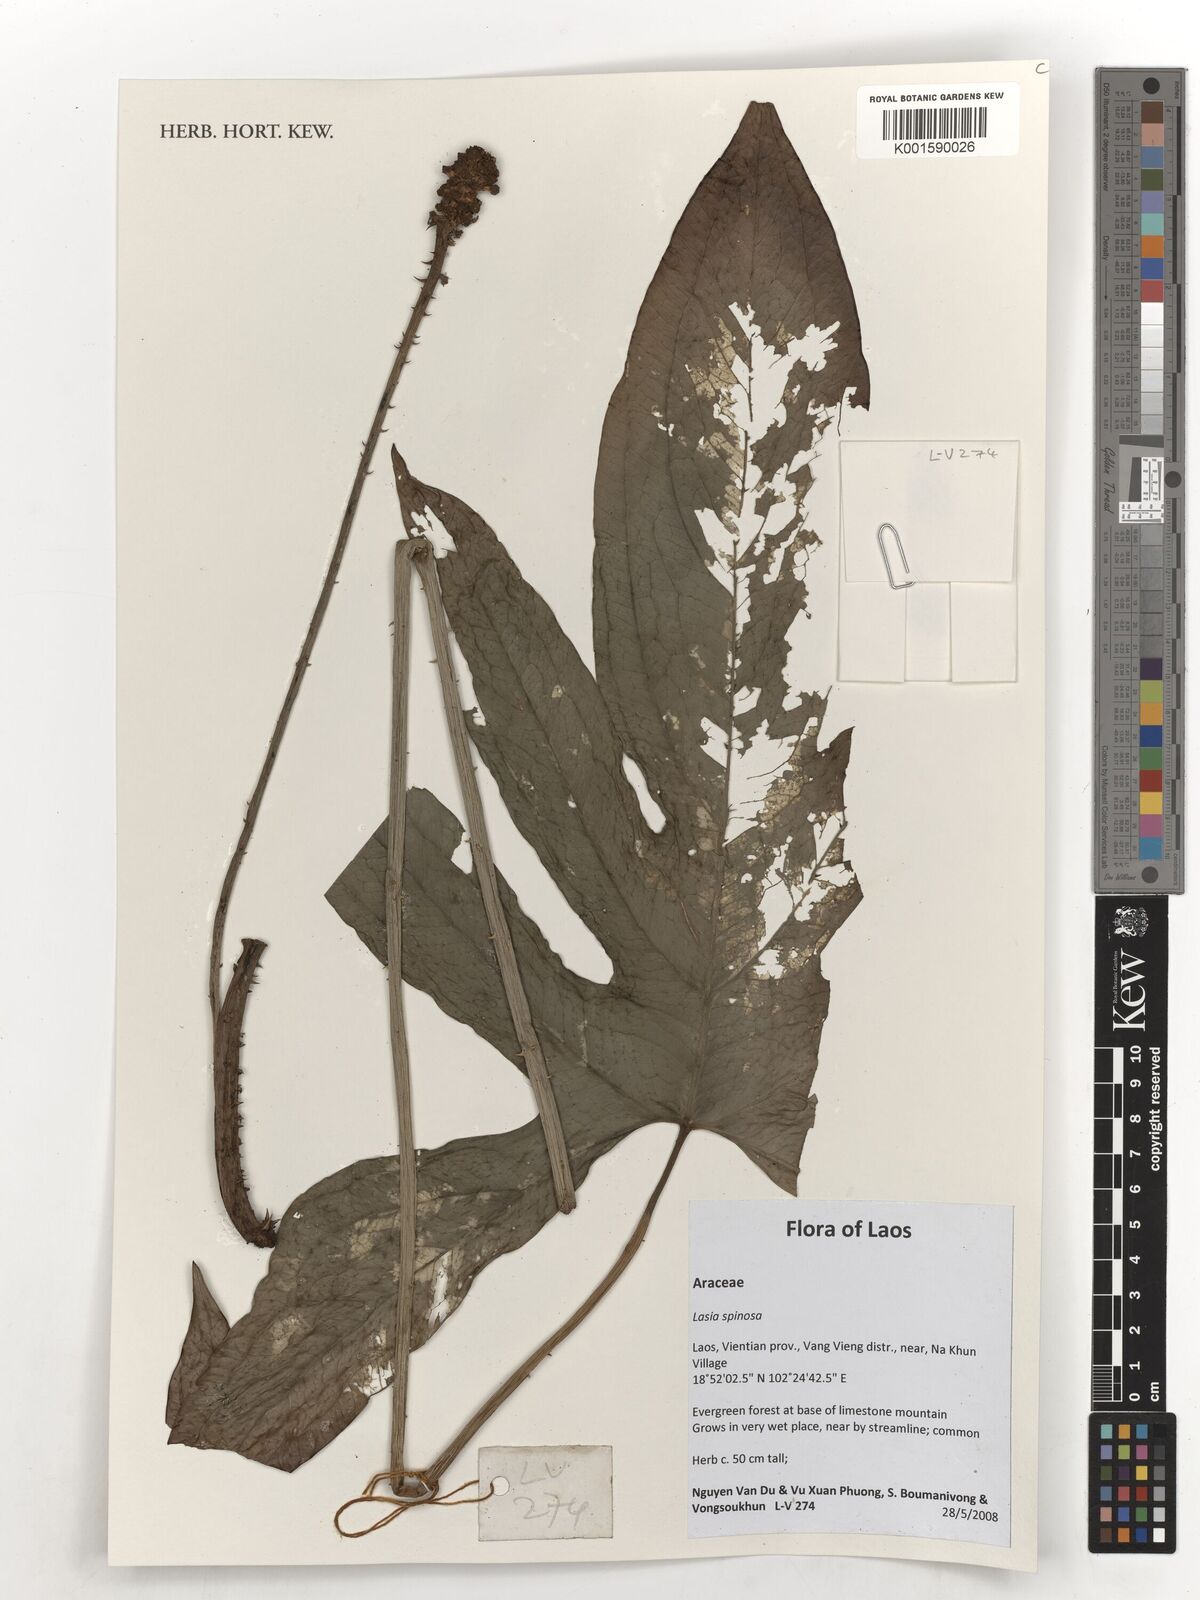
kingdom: Plantae
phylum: Tracheophyta
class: Liliopsida
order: Alismatales
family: Araceae
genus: Lasia
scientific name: Lasia spinosa
